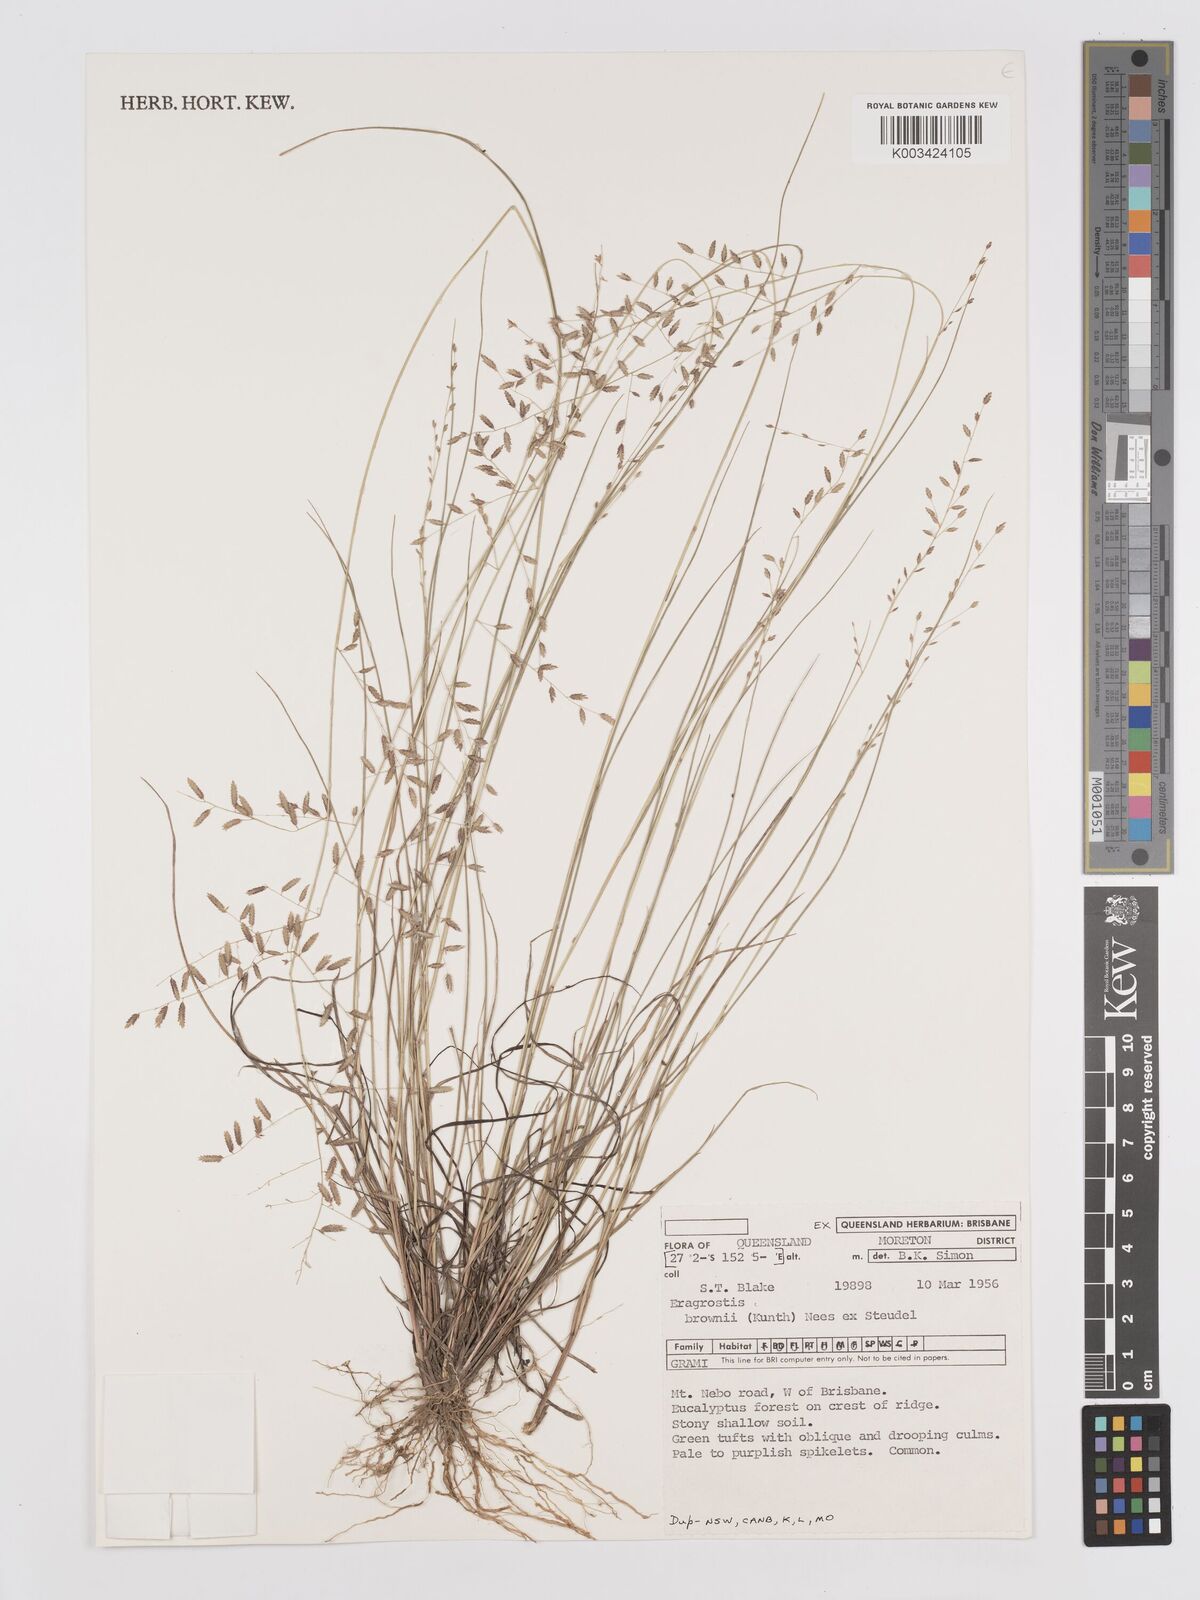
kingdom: Plantae
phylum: Tracheophyta
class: Liliopsida
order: Poales
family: Poaceae
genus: Eragrostis
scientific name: Eragrostis brownii
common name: Lovegrass
